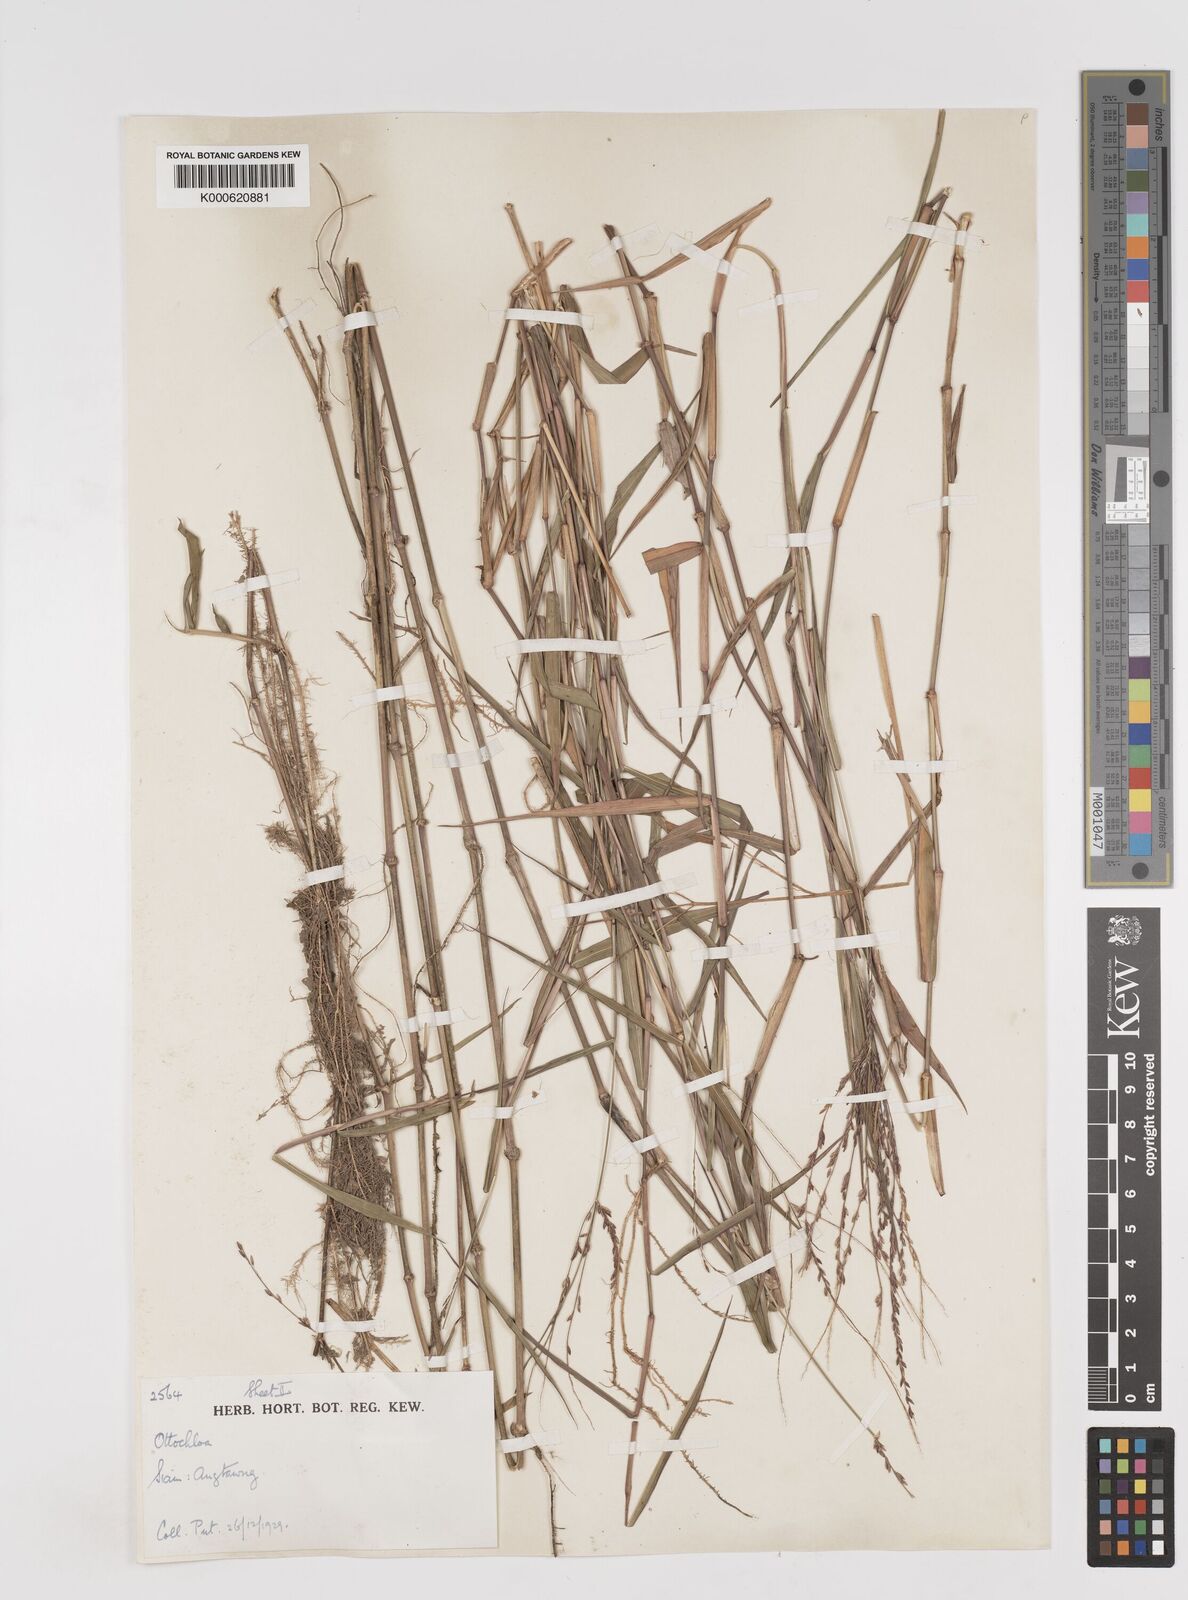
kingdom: Plantae
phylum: Tracheophyta
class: Liliopsida
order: Poales
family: Poaceae
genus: Ottochloa
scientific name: Ottochloa nodosa
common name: Slender-panic grass
